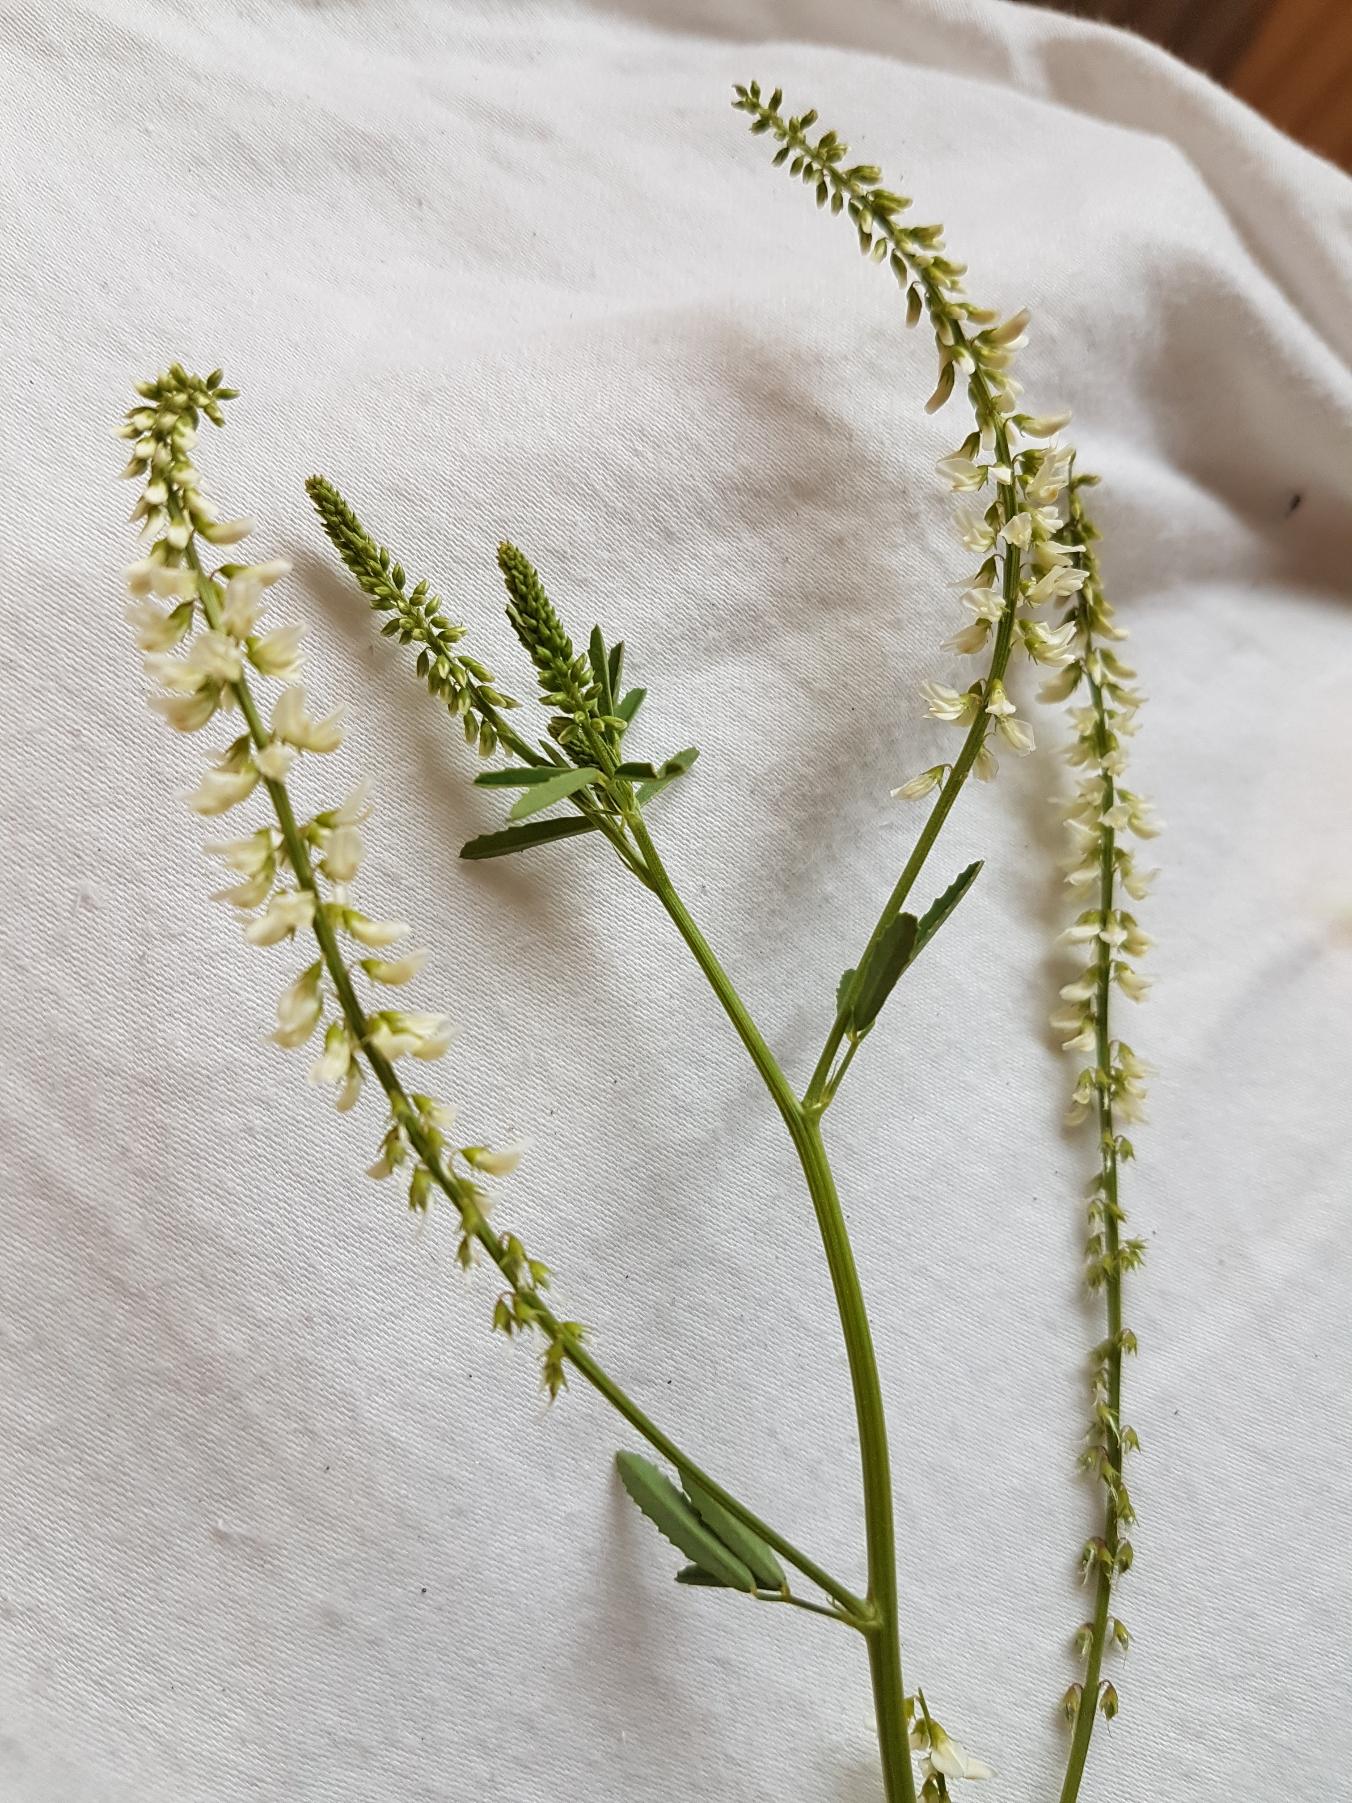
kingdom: Plantae
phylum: Tracheophyta
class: Magnoliopsida
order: Fabales
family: Fabaceae
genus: Melilotus
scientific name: Melilotus albus
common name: Hvid stenkløver
